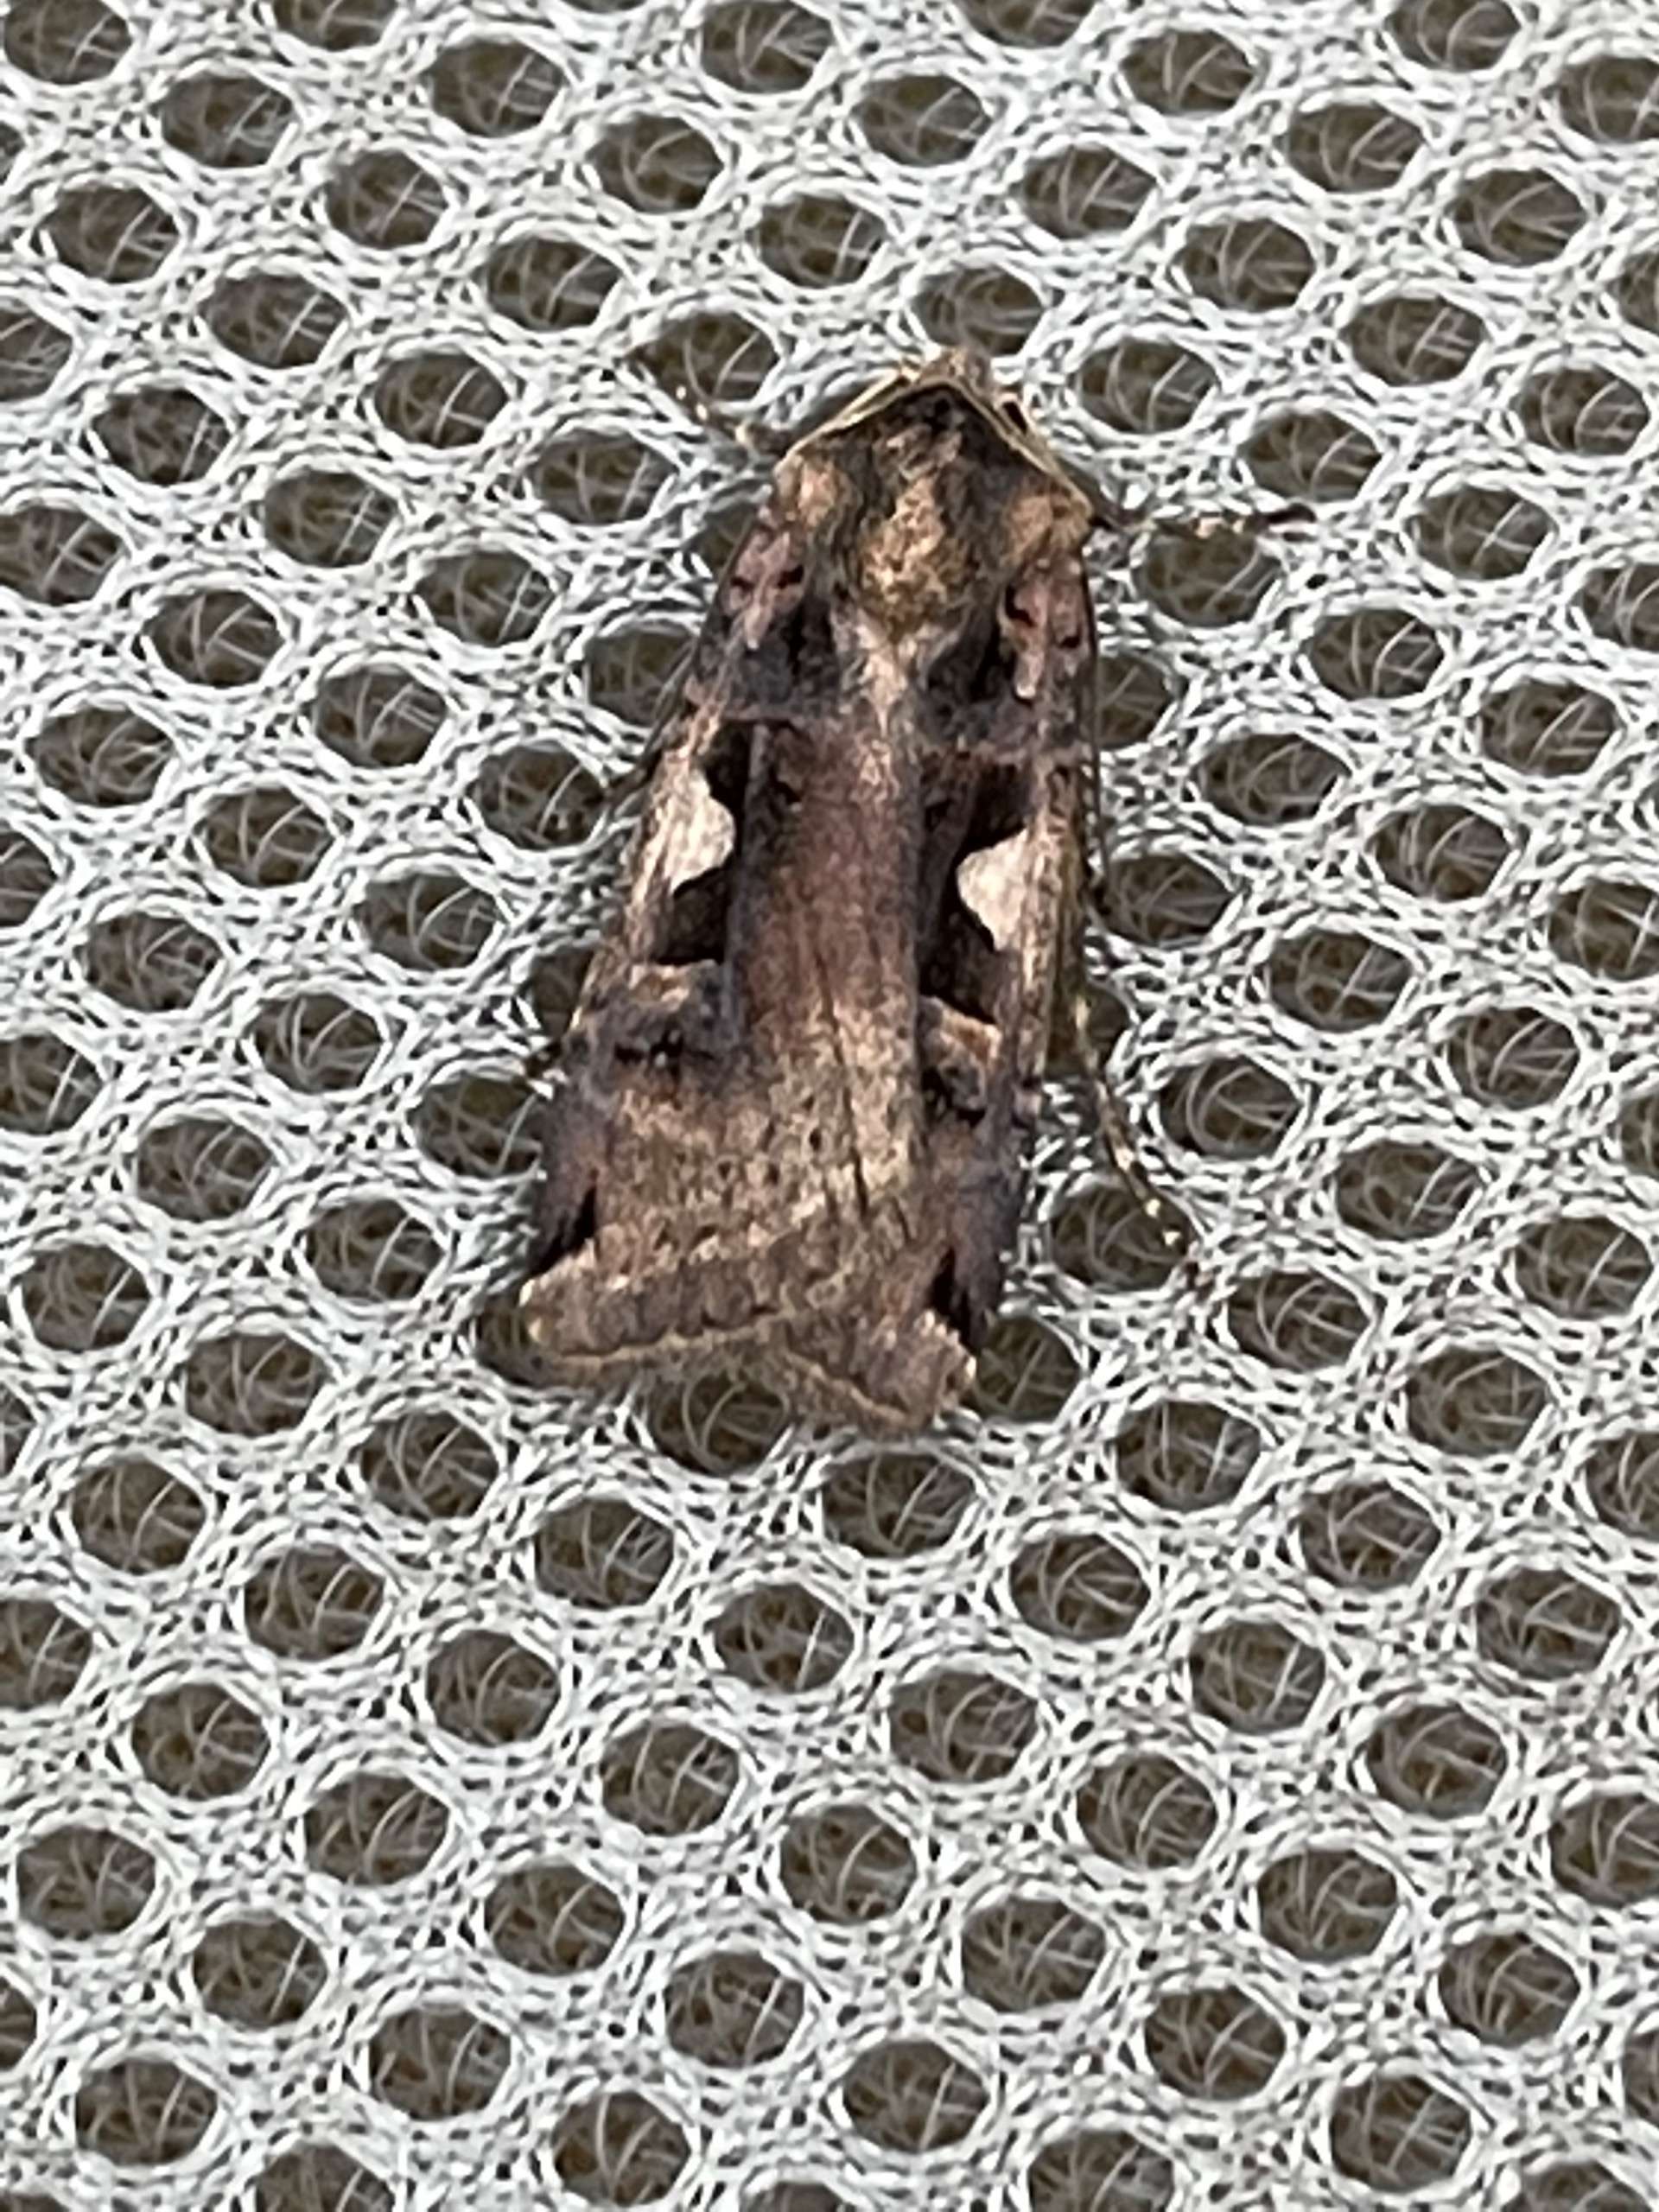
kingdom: Animalia
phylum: Arthropoda
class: Insecta
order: Lepidoptera
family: Noctuidae
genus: Xestia
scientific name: Xestia c-nigrum
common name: Det sorte c
